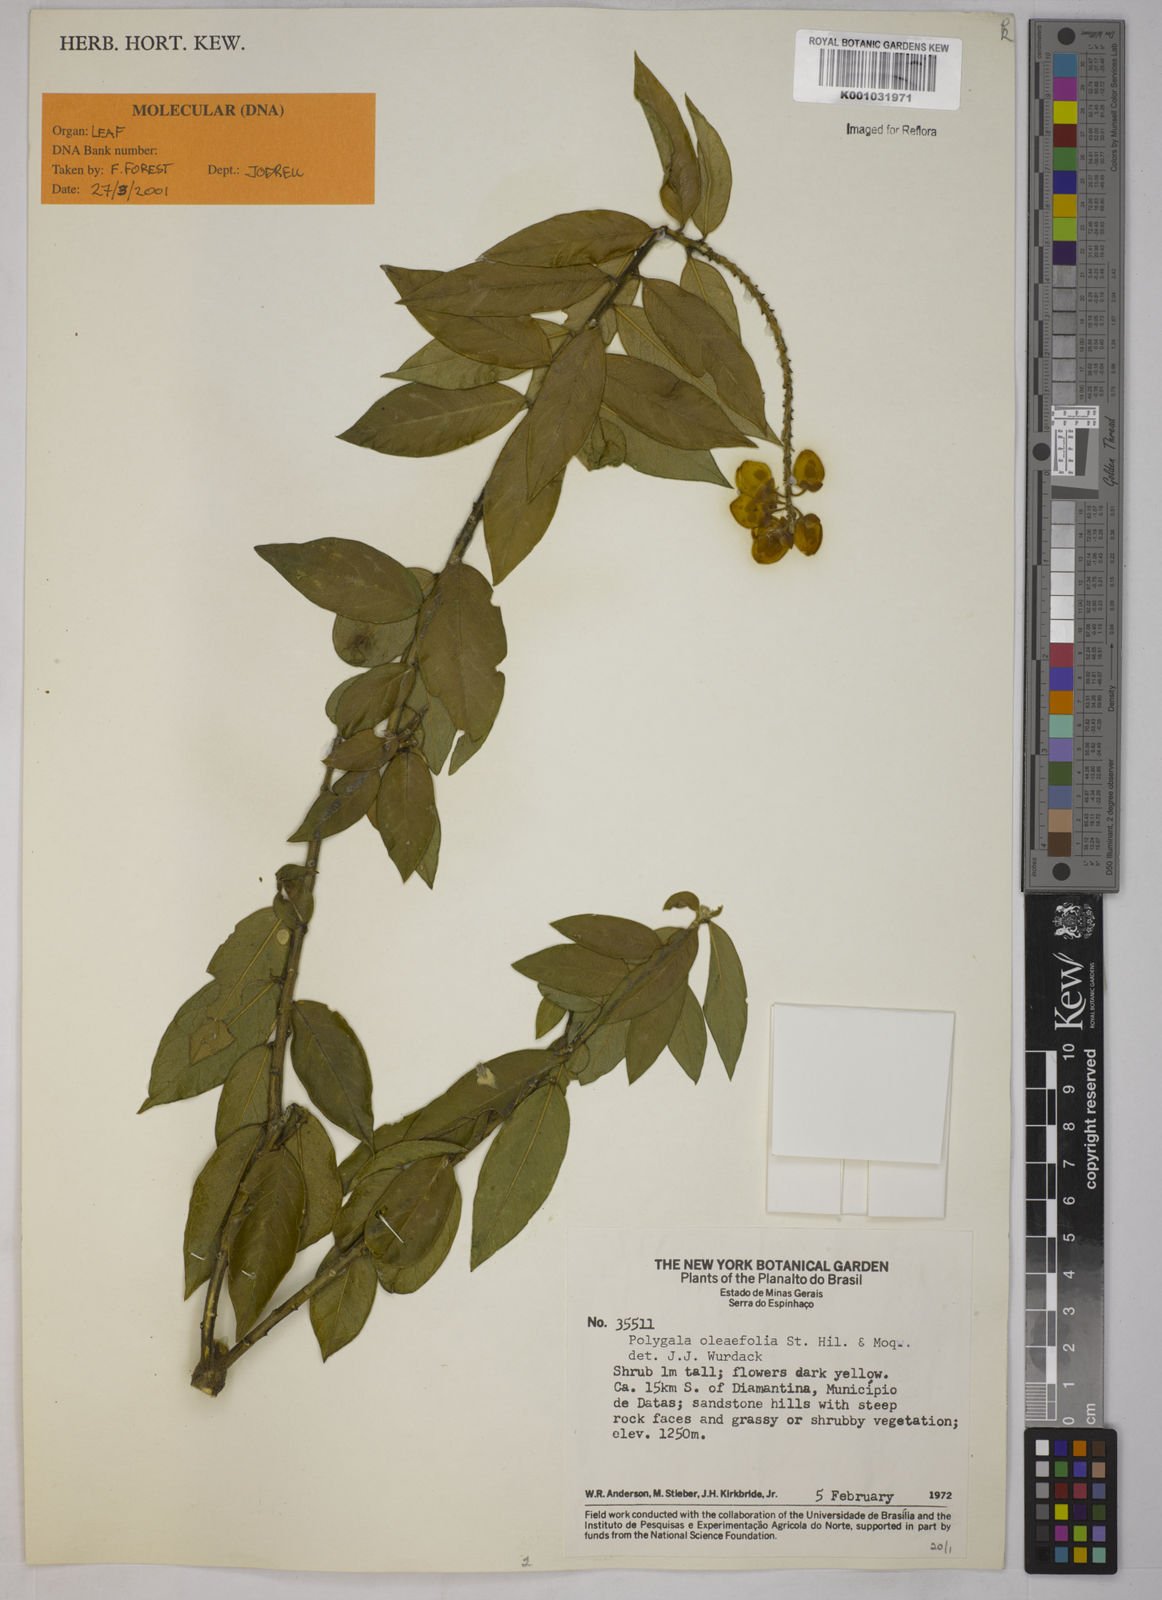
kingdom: Plantae
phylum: Tracheophyta
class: Magnoliopsida
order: Fabales
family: Polygalaceae
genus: Caamembeca
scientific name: Caamembeca oleifolia
